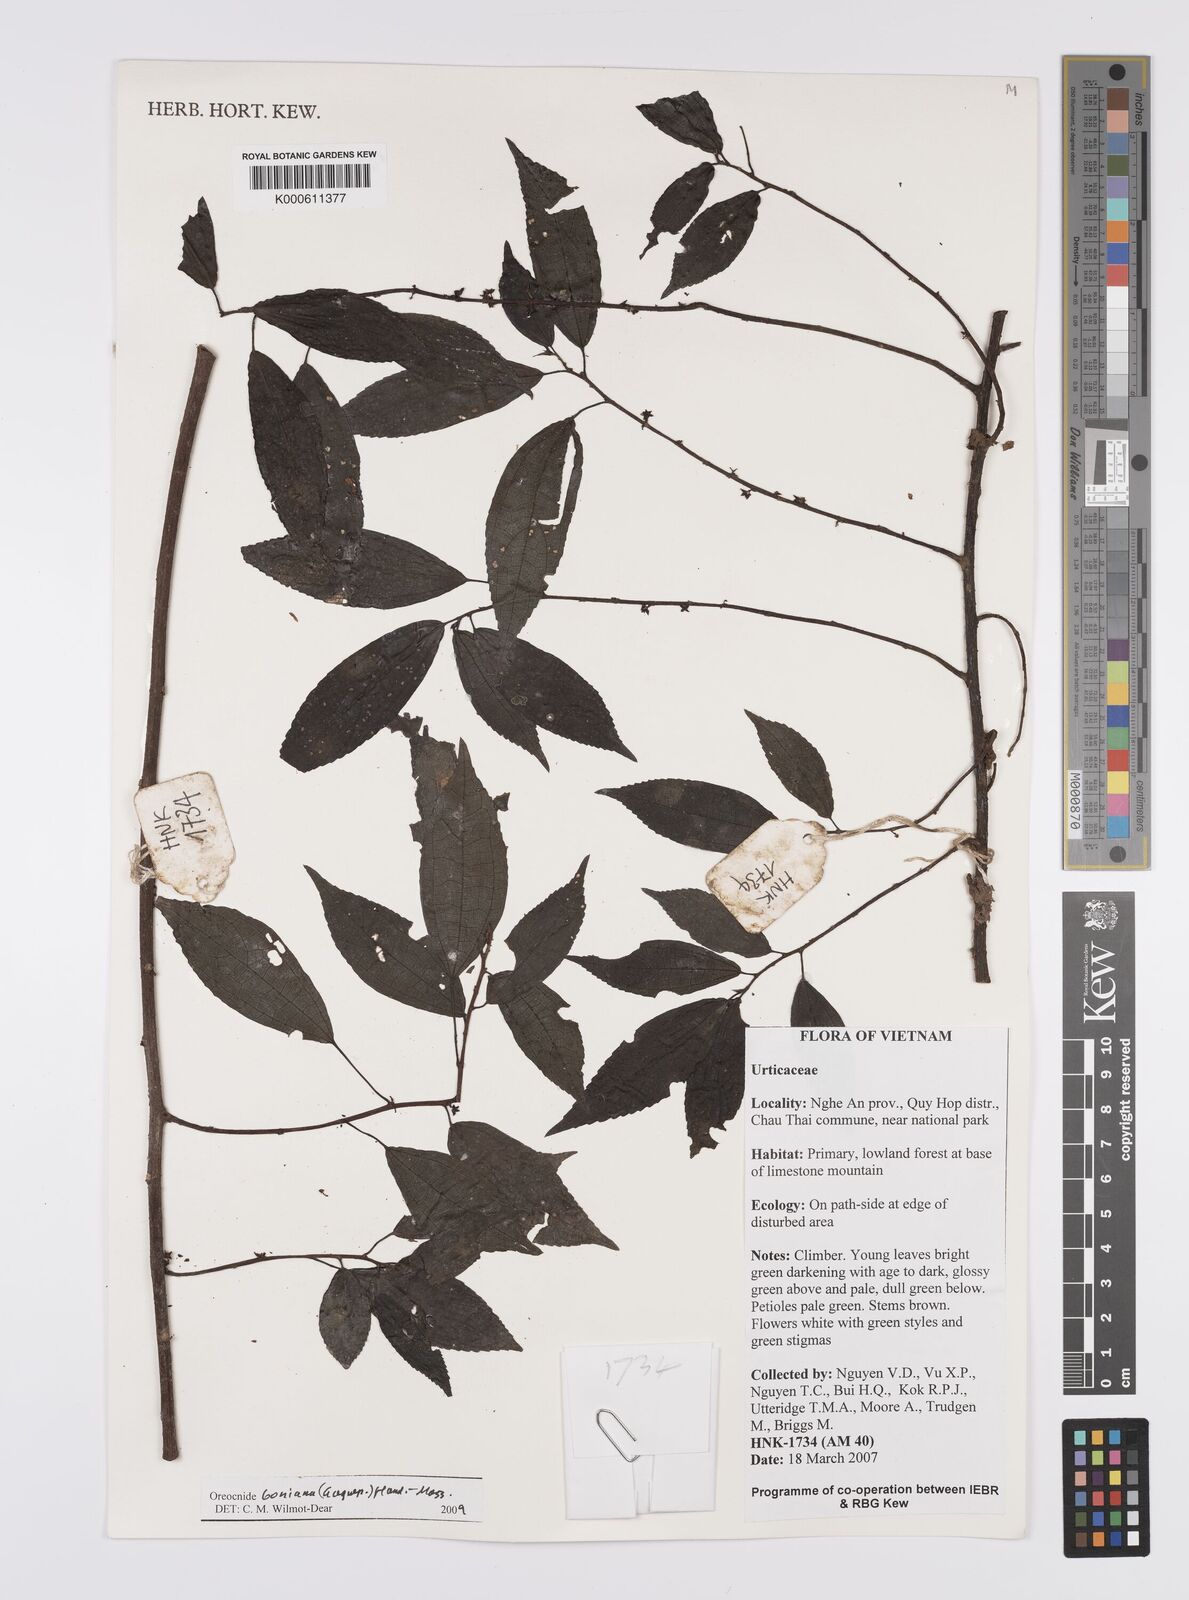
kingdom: Plantae
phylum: Tracheophyta
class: Magnoliopsida
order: Rosales
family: Urticaceae
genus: Oreocnide
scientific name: Oreocnide boniana
